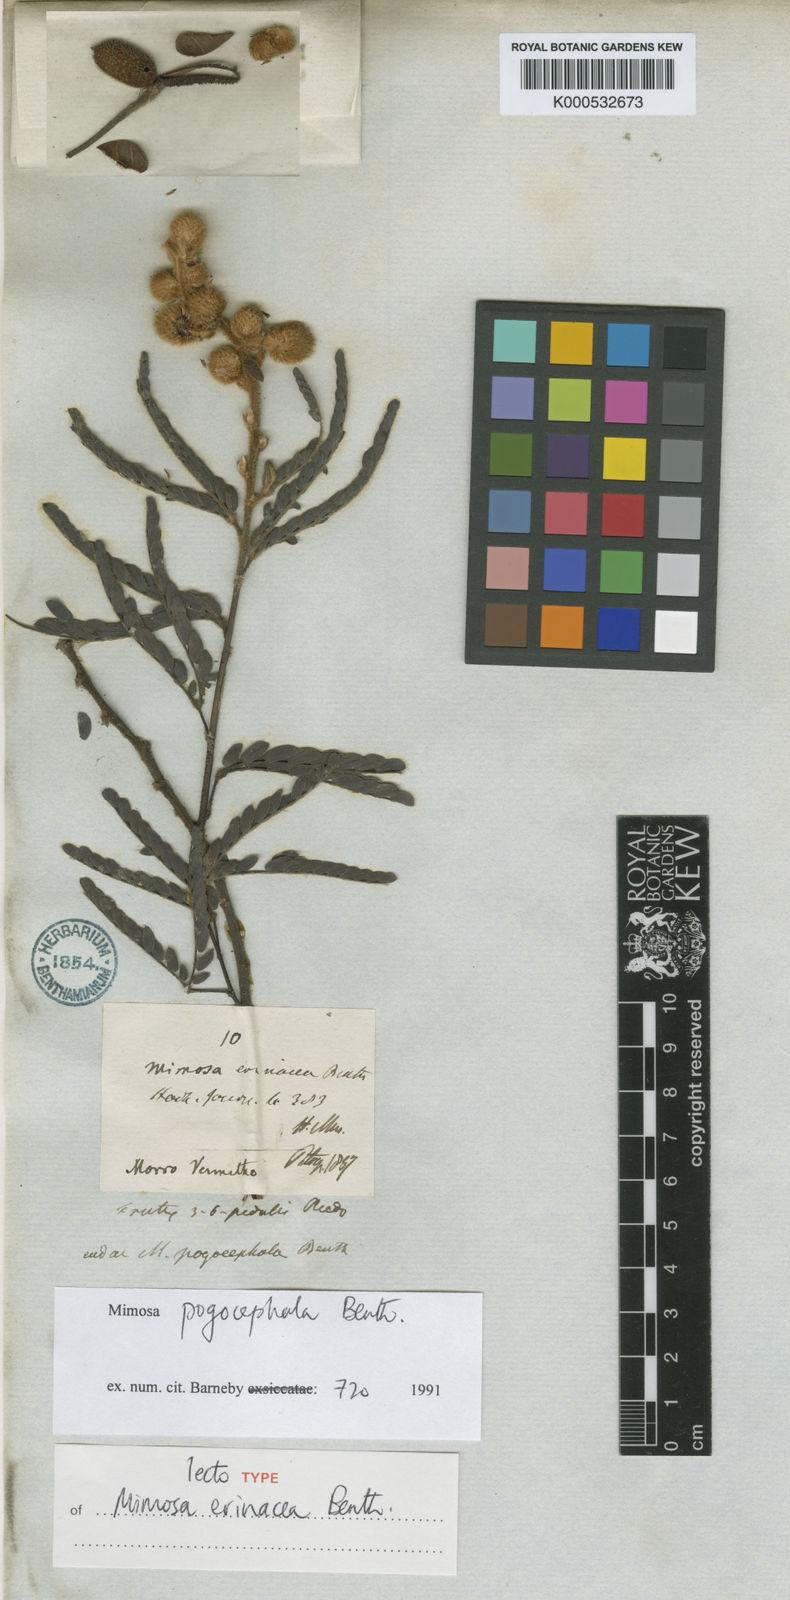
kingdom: Plantae
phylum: Tracheophyta
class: Magnoliopsida
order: Fabales
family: Fabaceae
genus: Mimosa
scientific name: Mimosa pogocephala
